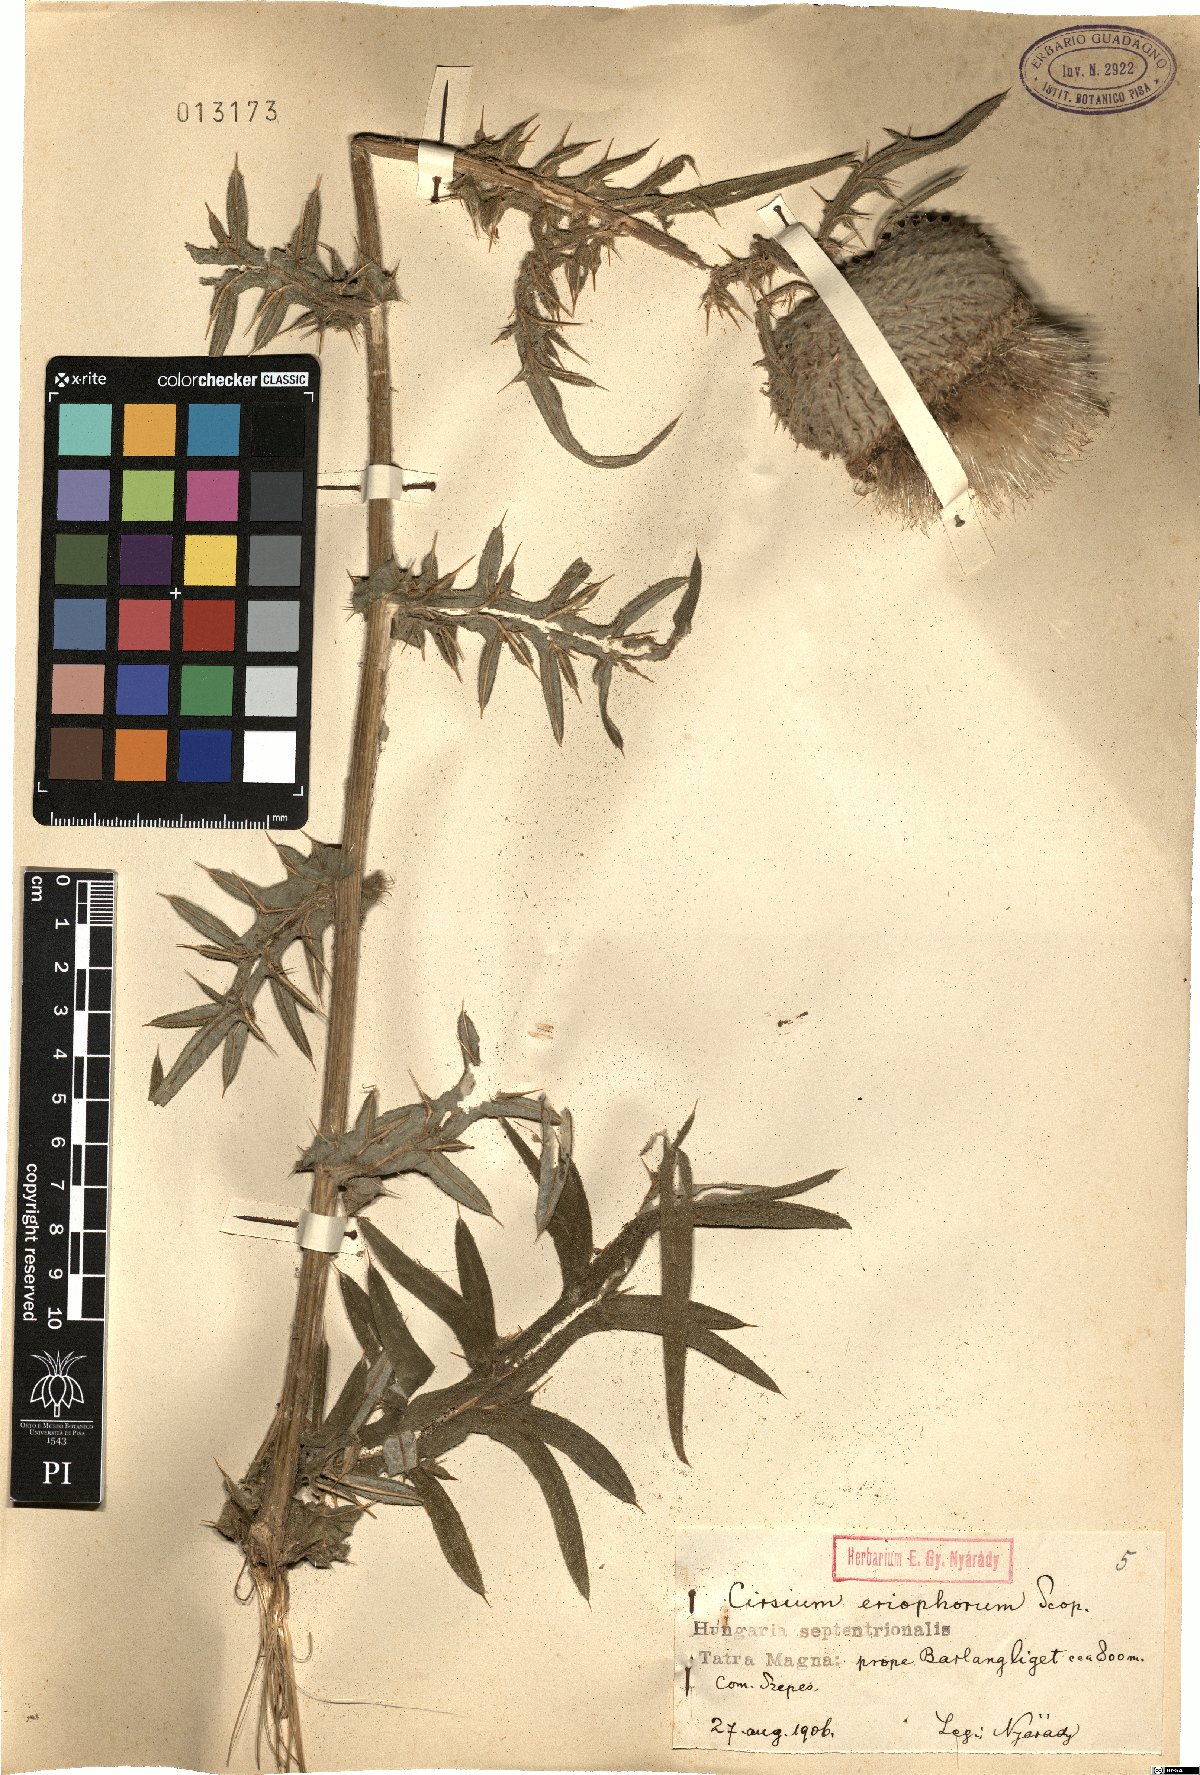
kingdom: Plantae
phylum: Tracheophyta
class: Magnoliopsida
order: Asterales
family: Asteraceae
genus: Lophiolepis
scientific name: Lophiolepis eriophora
